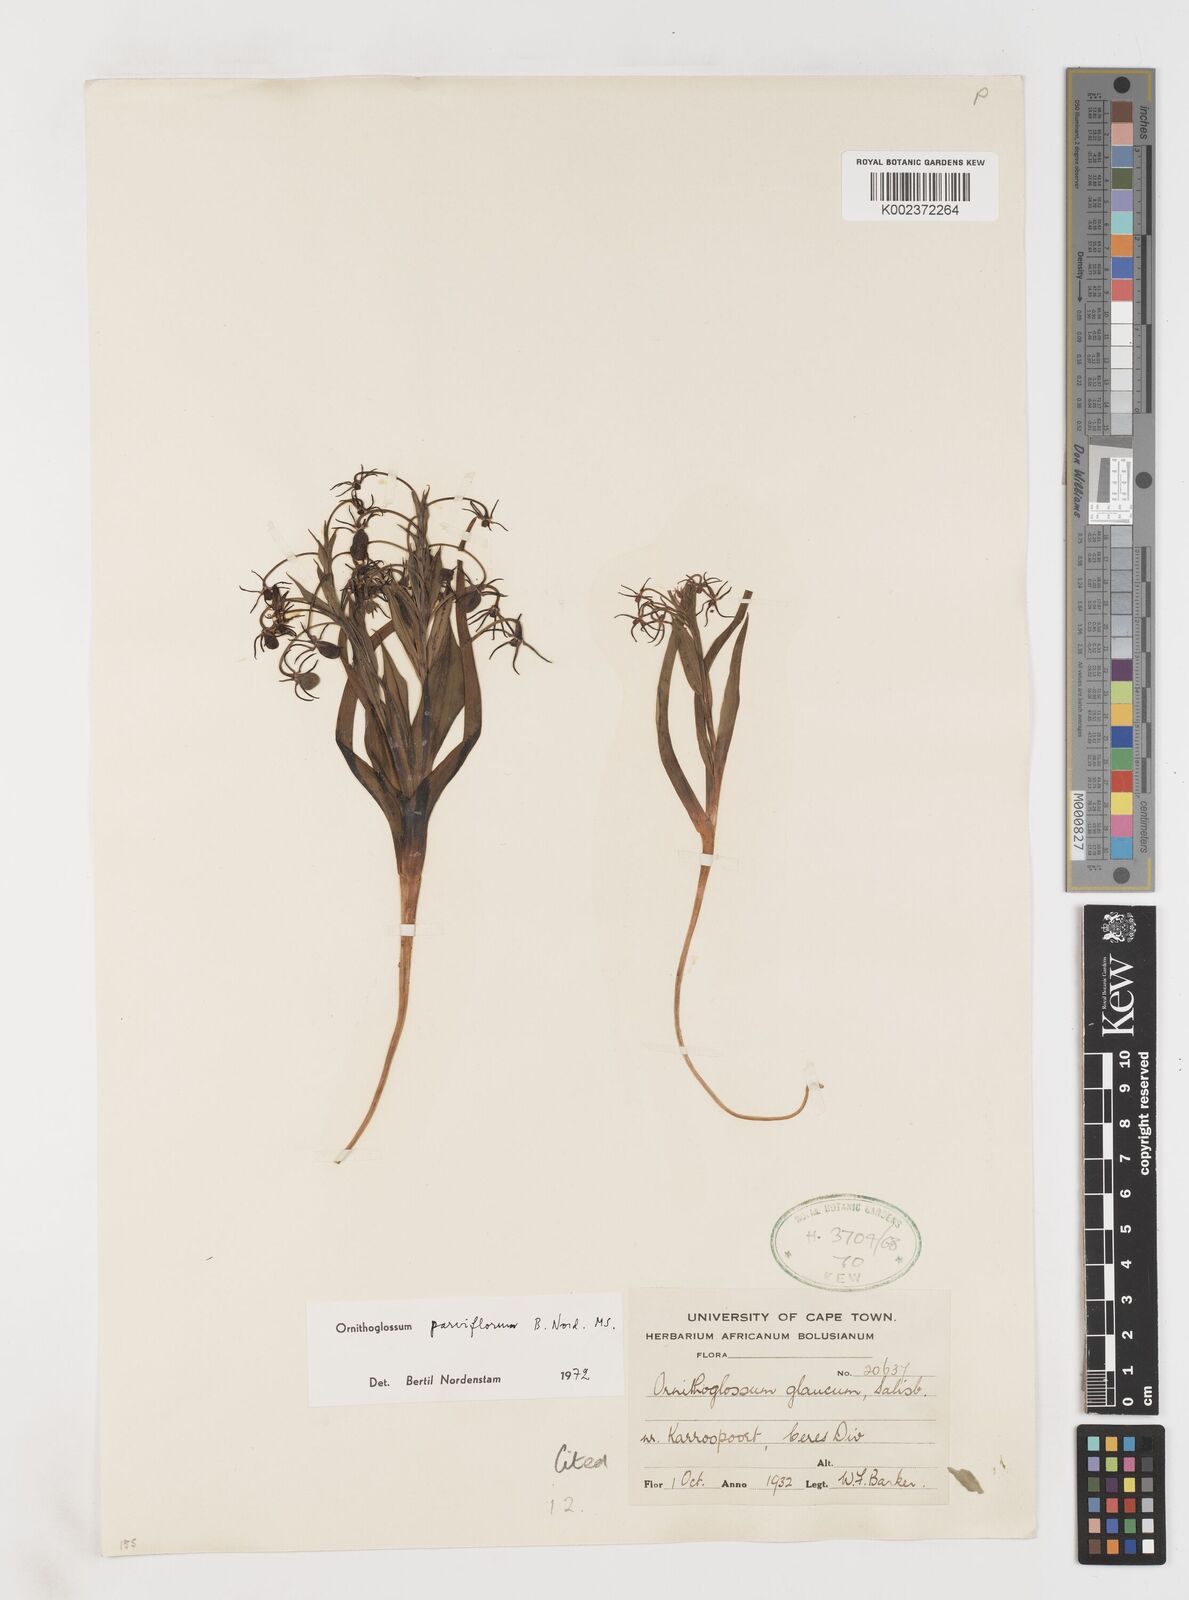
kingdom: Plantae
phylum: Tracheophyta
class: Liliopsida
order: Liliales
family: Colchicaceae
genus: Ornithoglossum
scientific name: Ornithoglossum parviflorum
